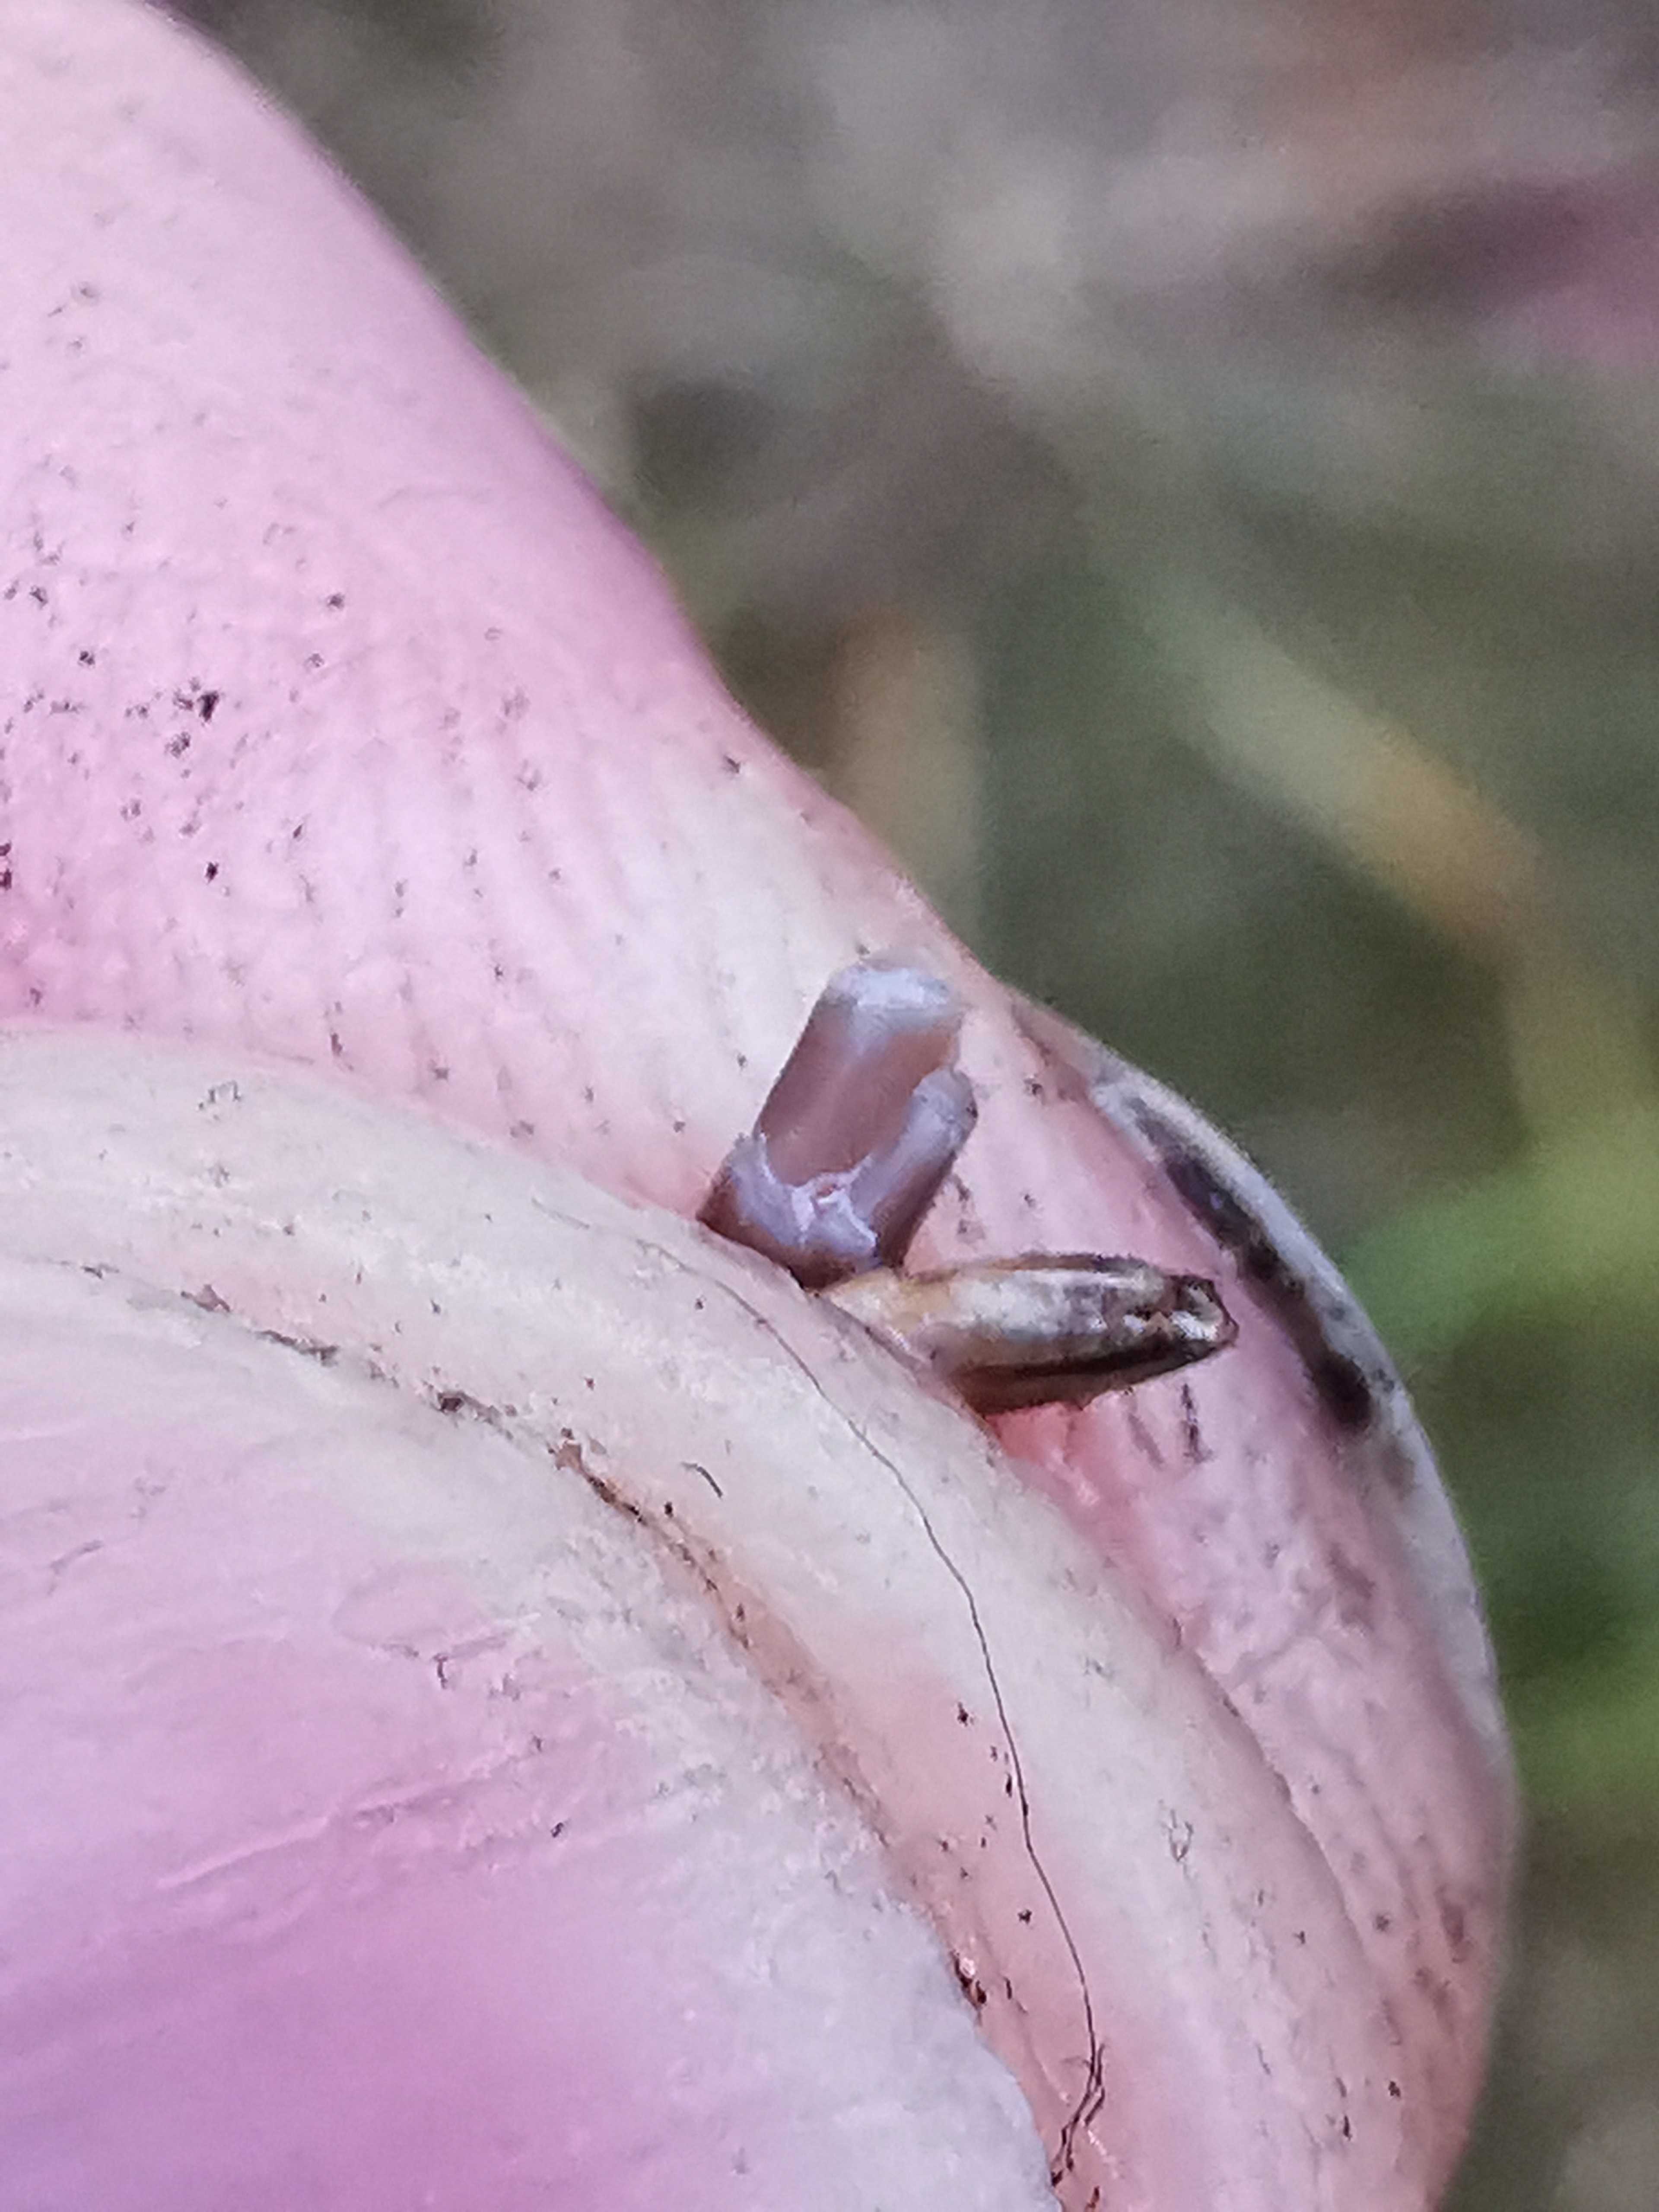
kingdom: Fungi
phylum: Basidiomycota
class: Agaricomycetes
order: Agaricales
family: Mycenaceae
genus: Mycena
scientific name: Mycena galopus
